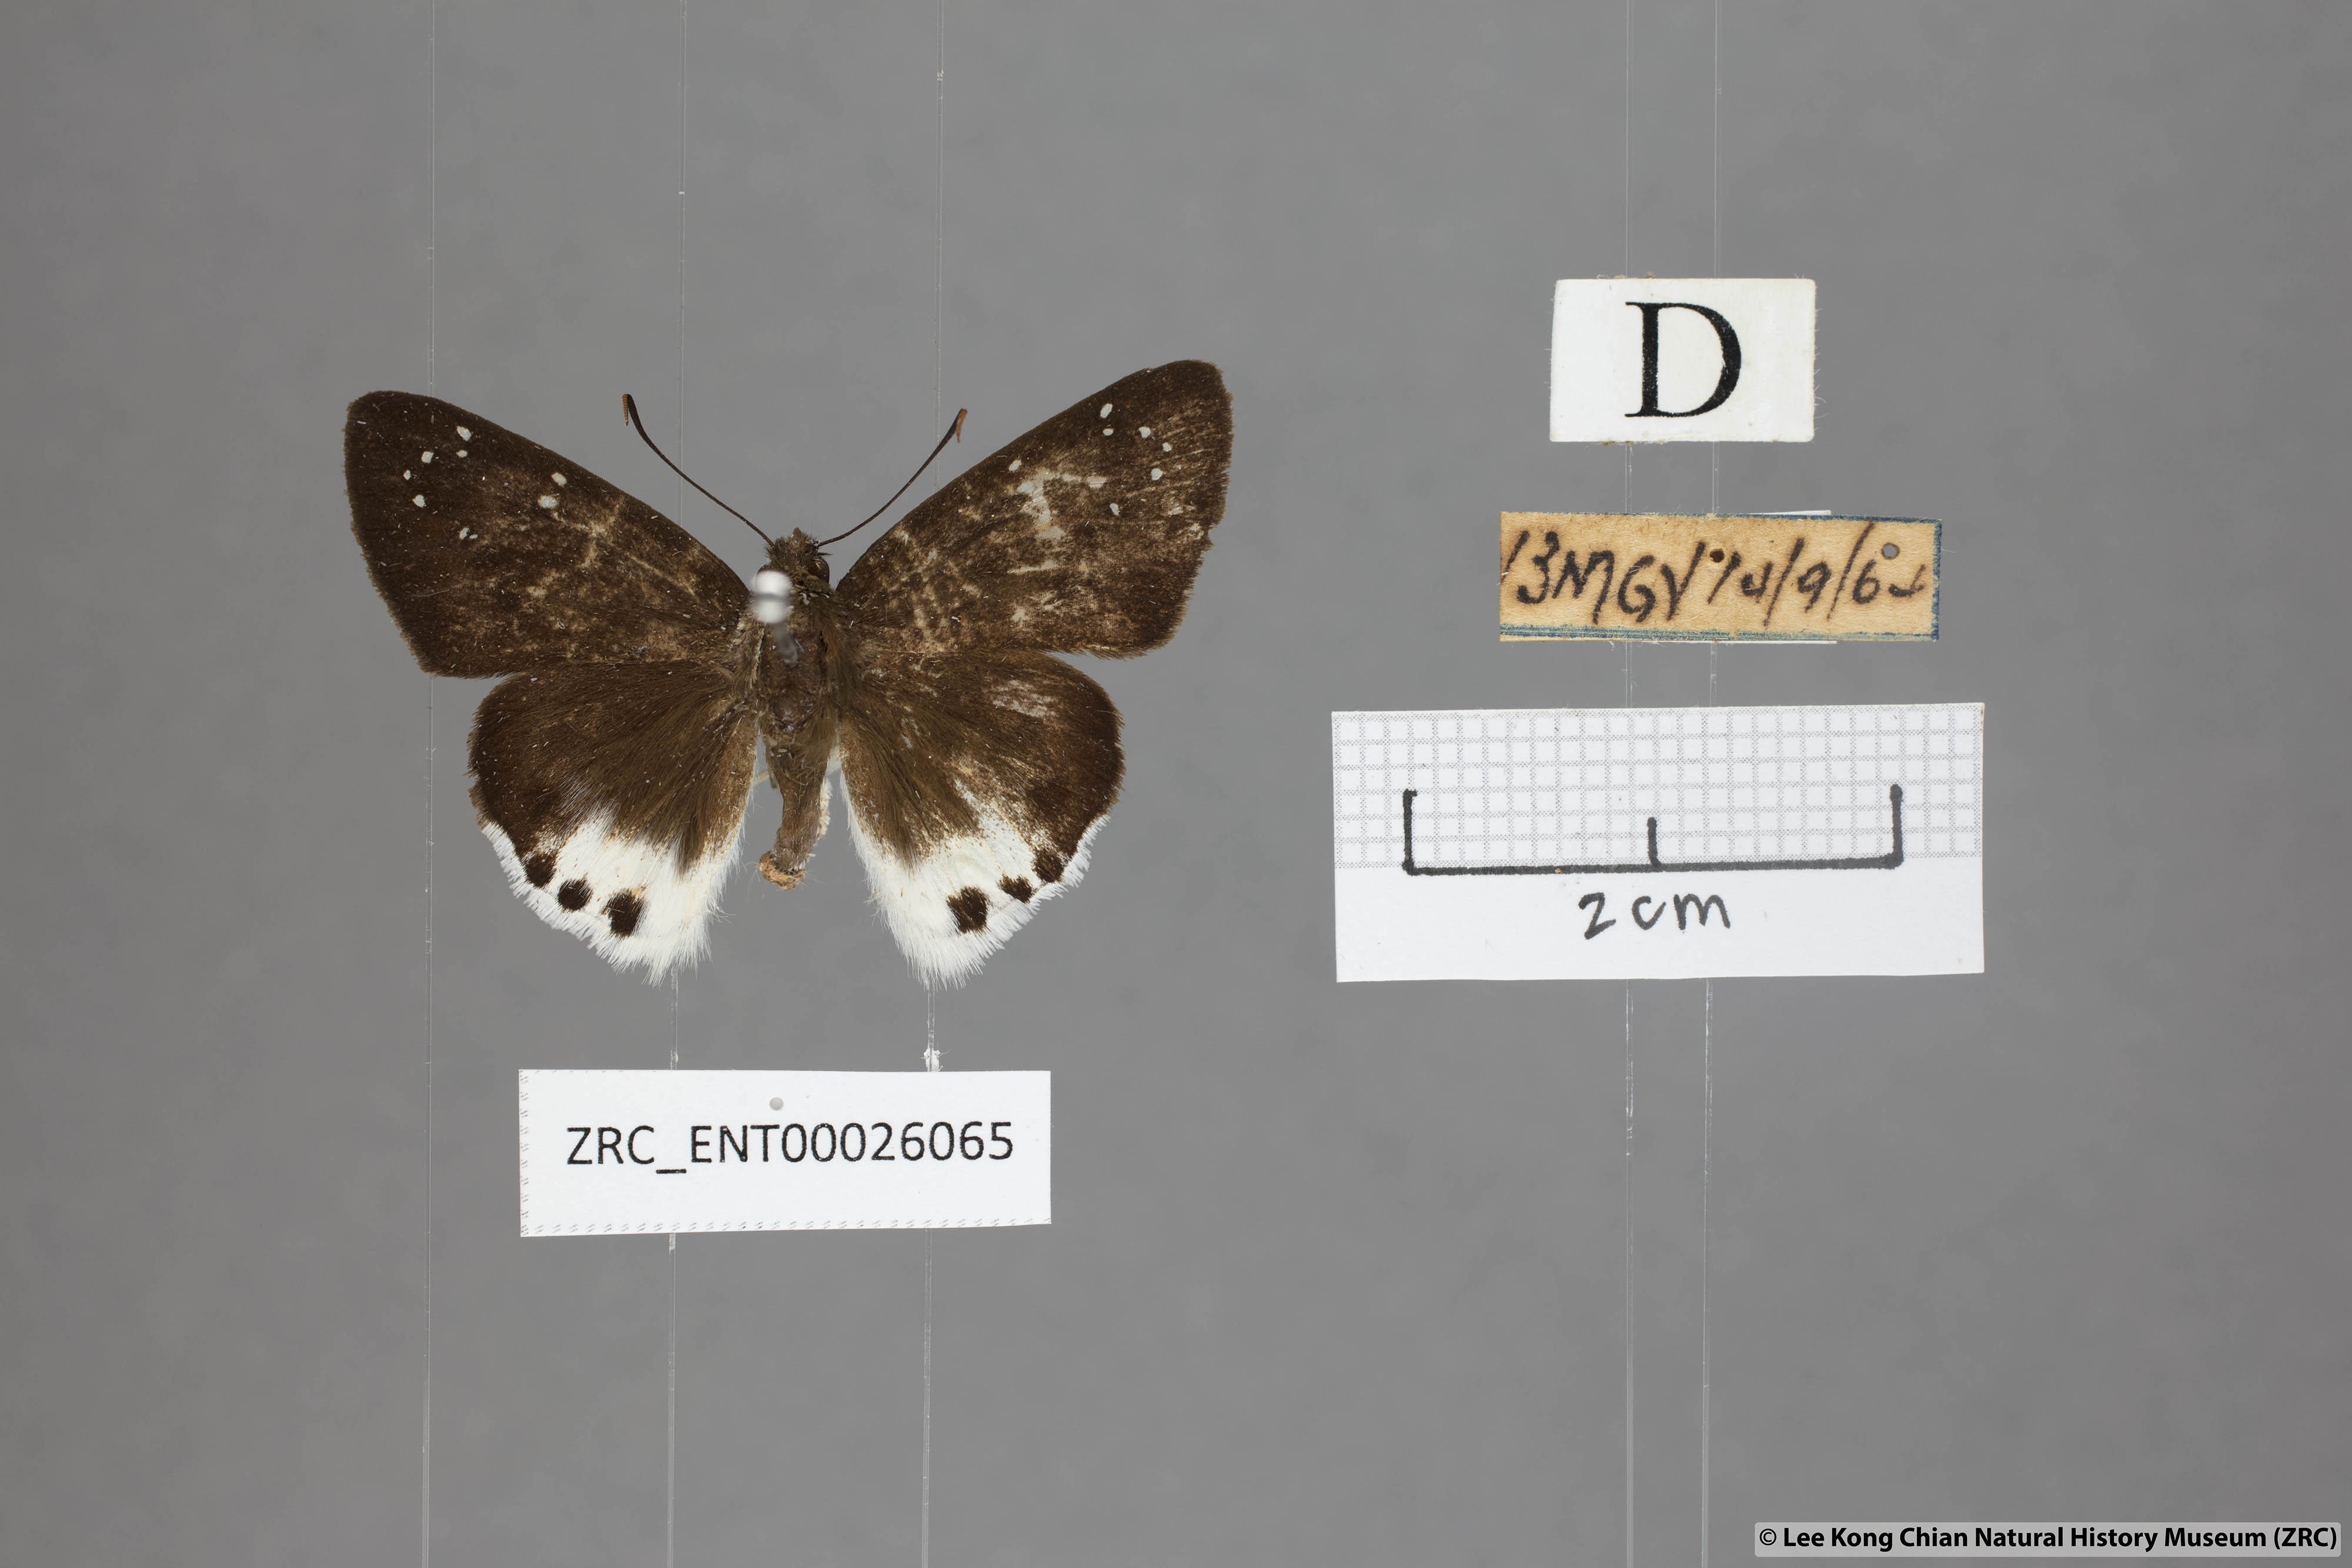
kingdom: Animalia
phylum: Arthropoda
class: Insecta
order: Lepidoptera
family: Hesperiidae
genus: Tagiades
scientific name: Tagiades waterstradti
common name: Waterstradt snow flat
